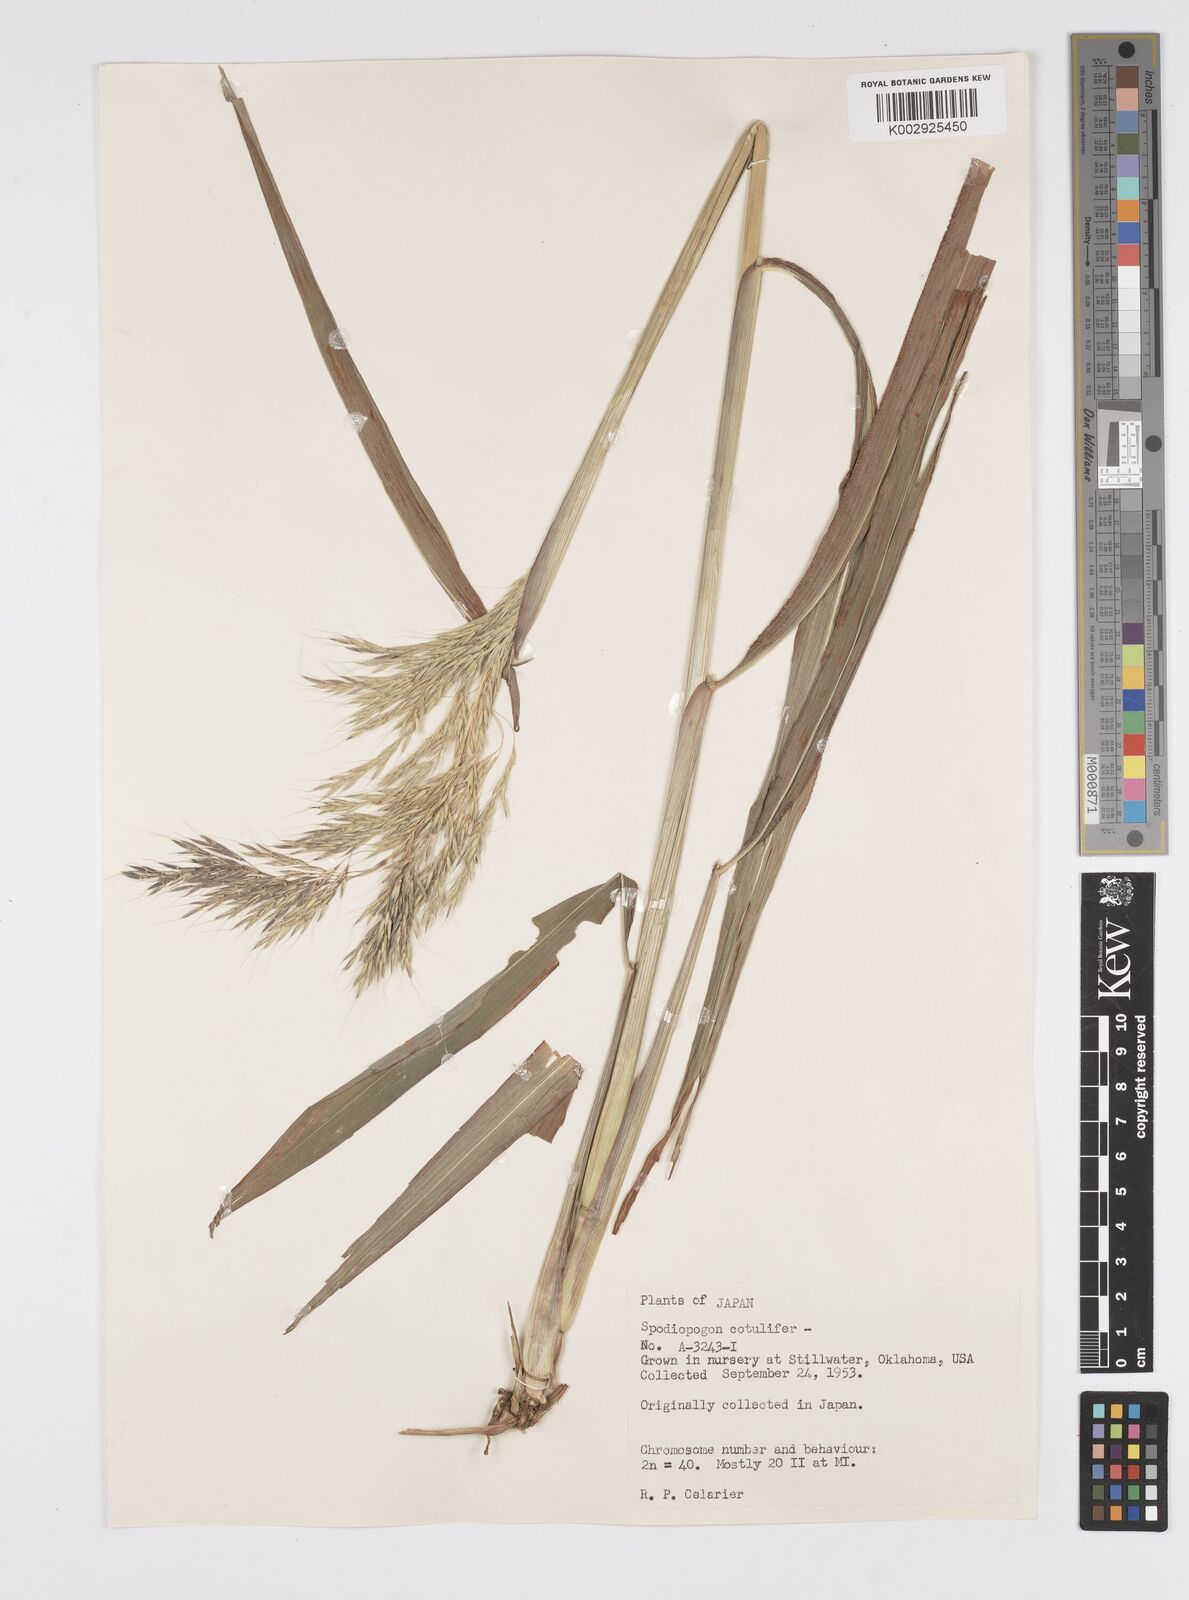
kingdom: Plantae
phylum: Tracheophyta
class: Liliopsida
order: Poales
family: Poaceae
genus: Spodiopogon
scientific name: Spodiopogon cotulifer
